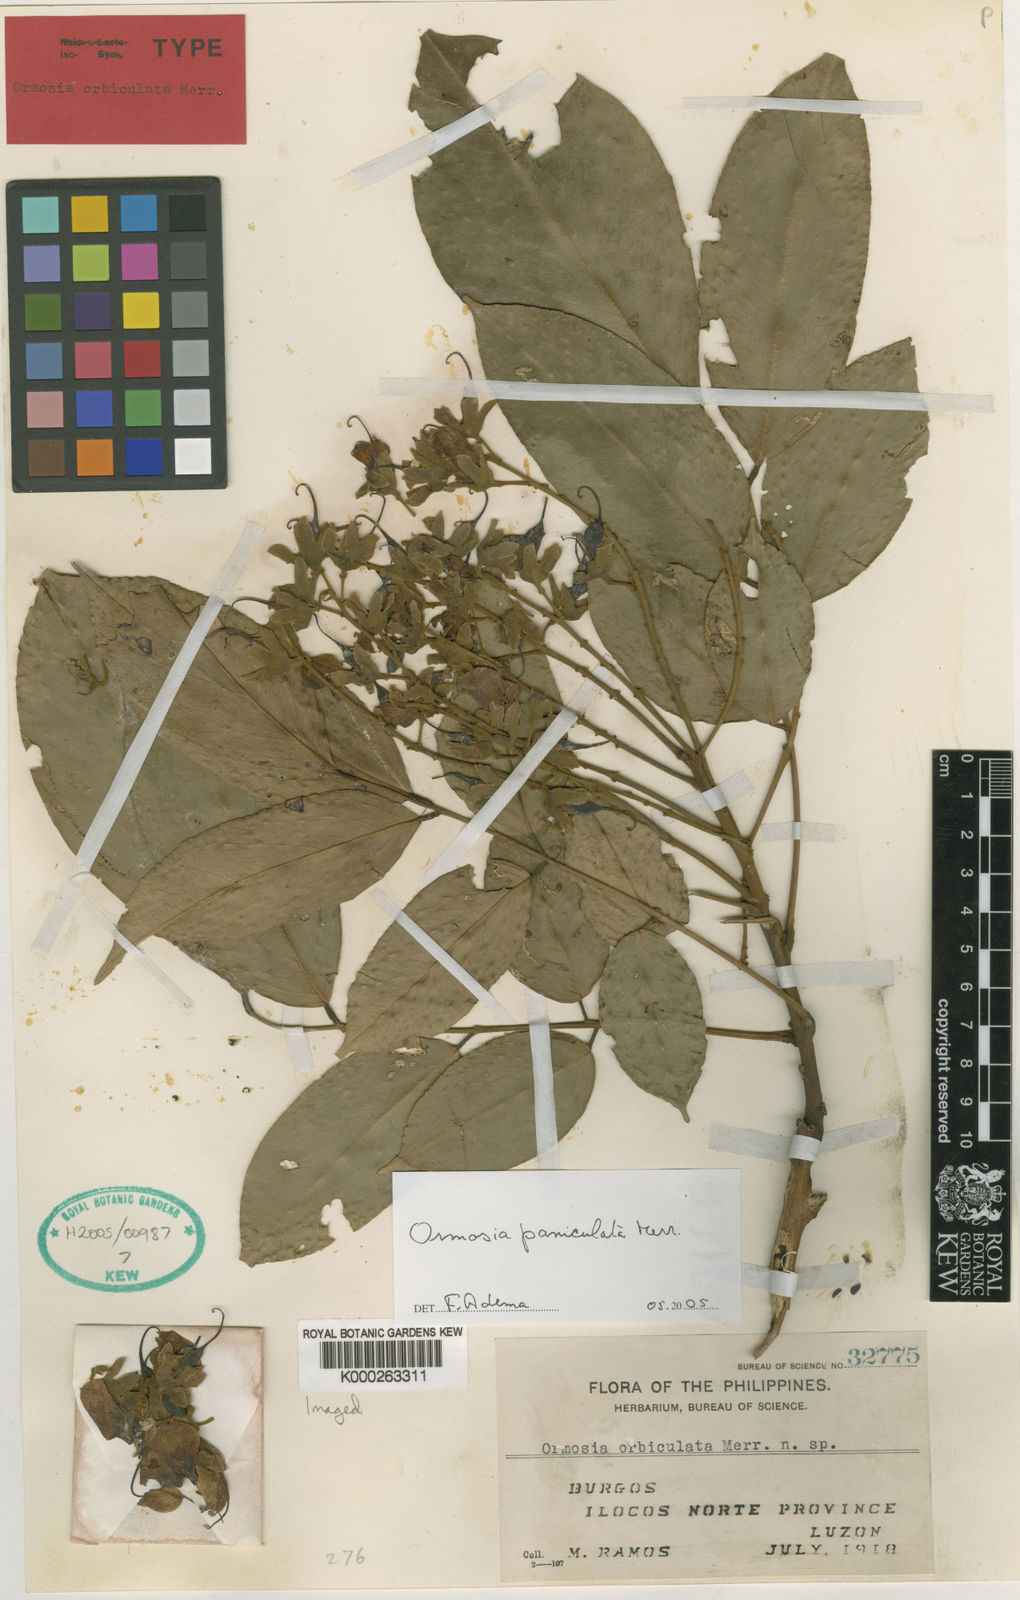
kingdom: Plantae
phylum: Tracheophyta
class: Magnoliopsida
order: Fabales
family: Fabaceae
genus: Ormosia
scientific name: Ormosia paniculata
